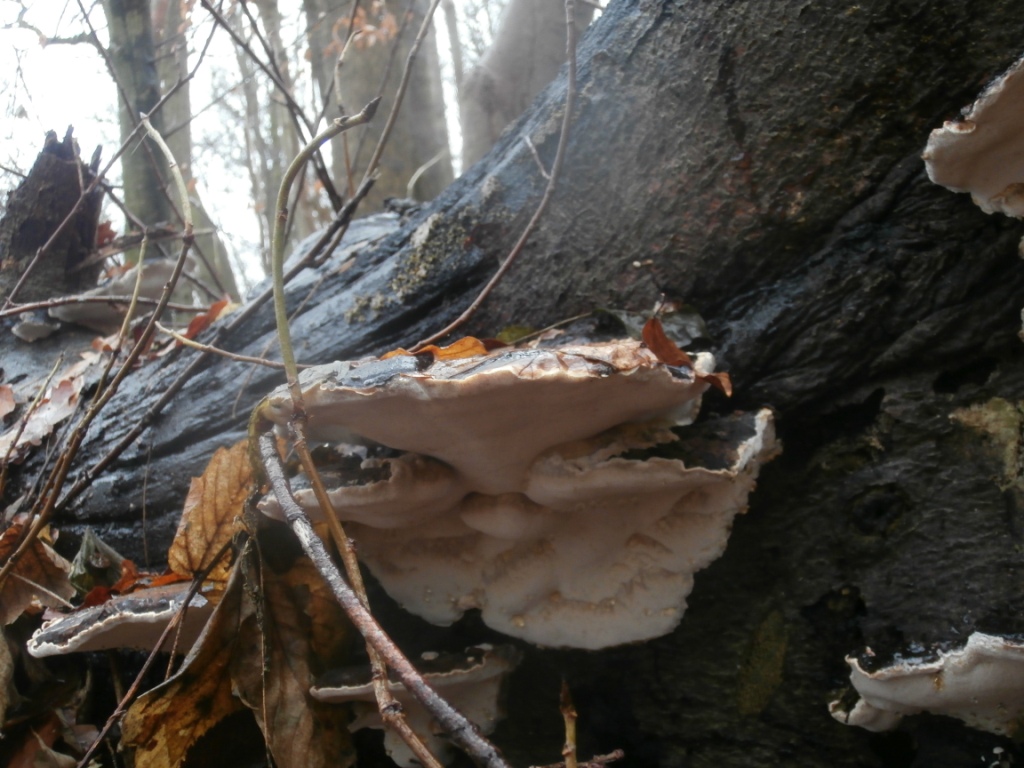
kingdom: Fungi
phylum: Basidiomycota
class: Agaricomycetes
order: Polyporales
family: Ischnodermataceae
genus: Ischnoderma
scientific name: Ischnoderma resinosum
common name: løv-tjæreporesvamp
